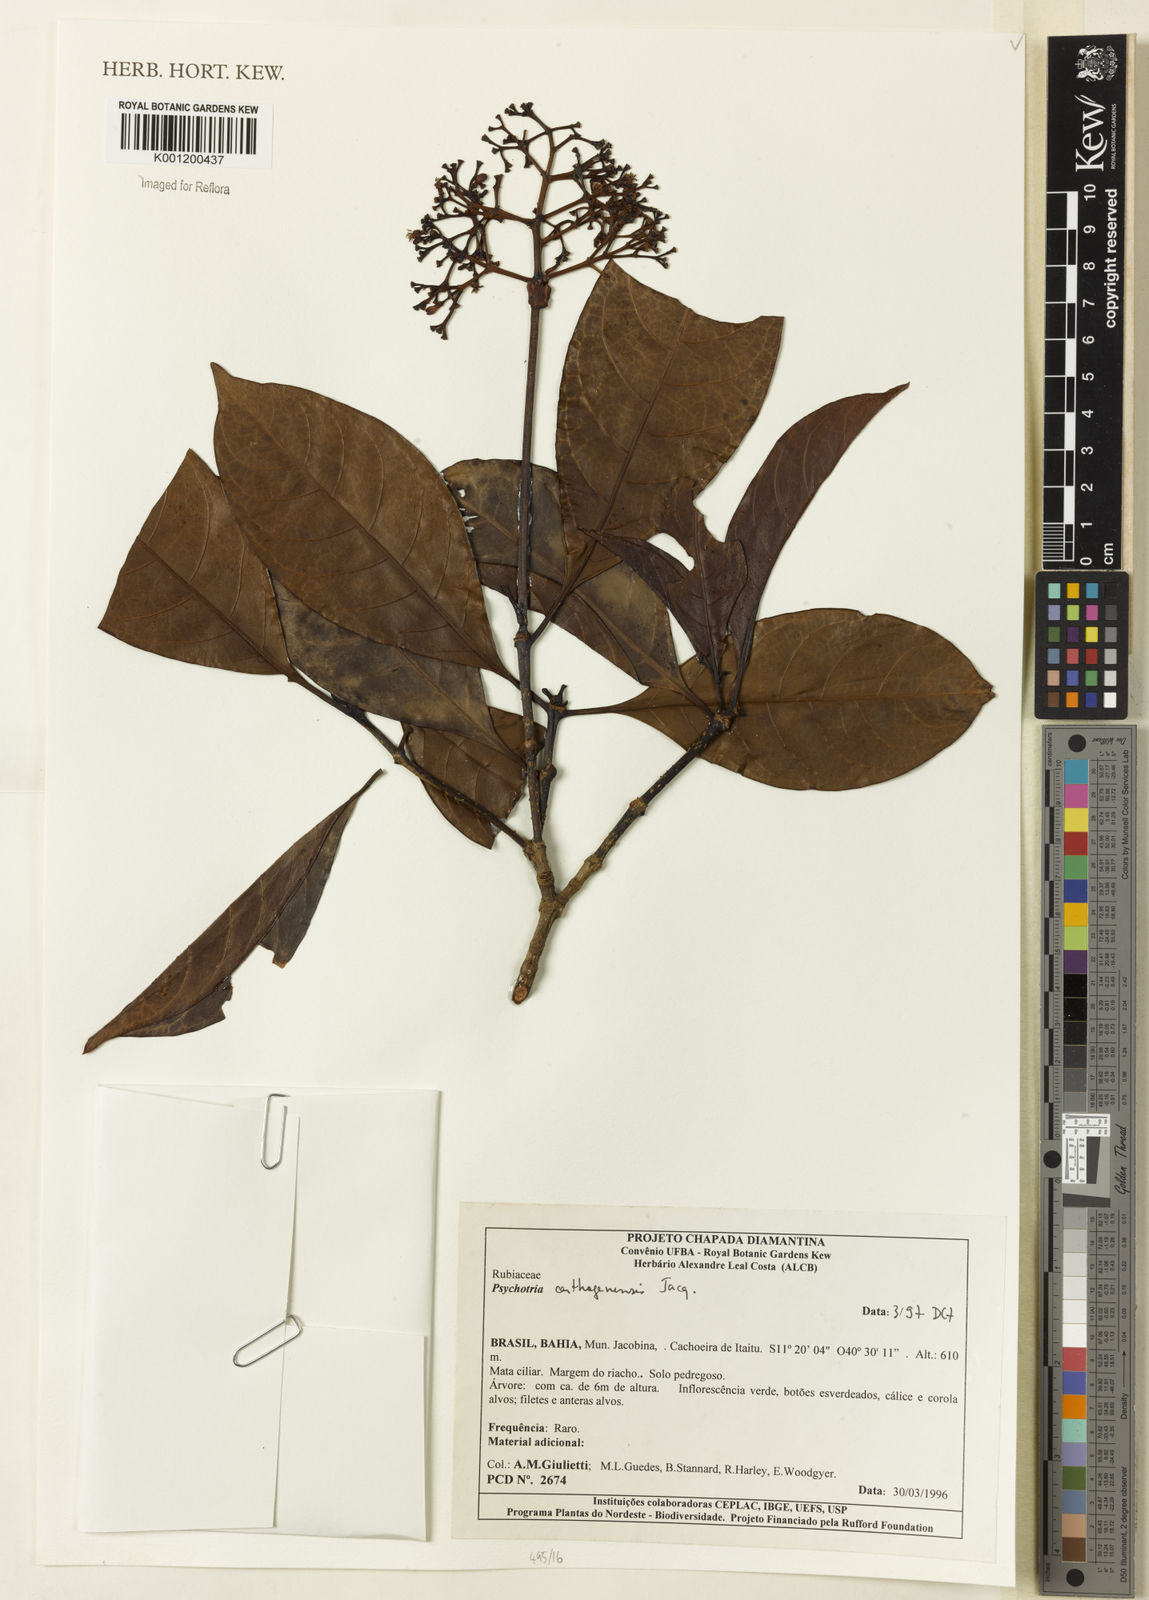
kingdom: Plantae
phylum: Tracheophyta
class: Magnoliopsida
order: Gentianales
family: Rubiaceae
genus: Psychotria
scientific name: Psychotria carthagenensis
